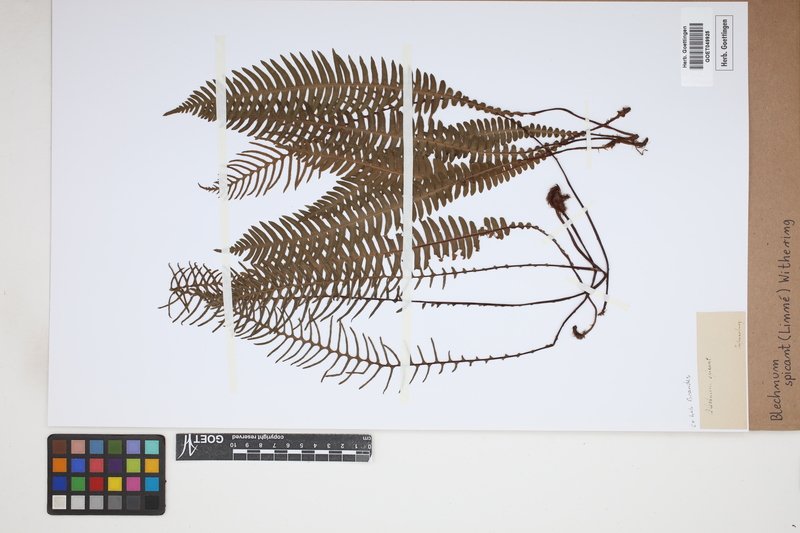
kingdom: Plantae
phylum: Tracheophyta
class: Polypodiopsida
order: Polypodiales
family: Blechnaceae
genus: Struthiopteris
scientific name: Struthiopteris spicant
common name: Deer fern
